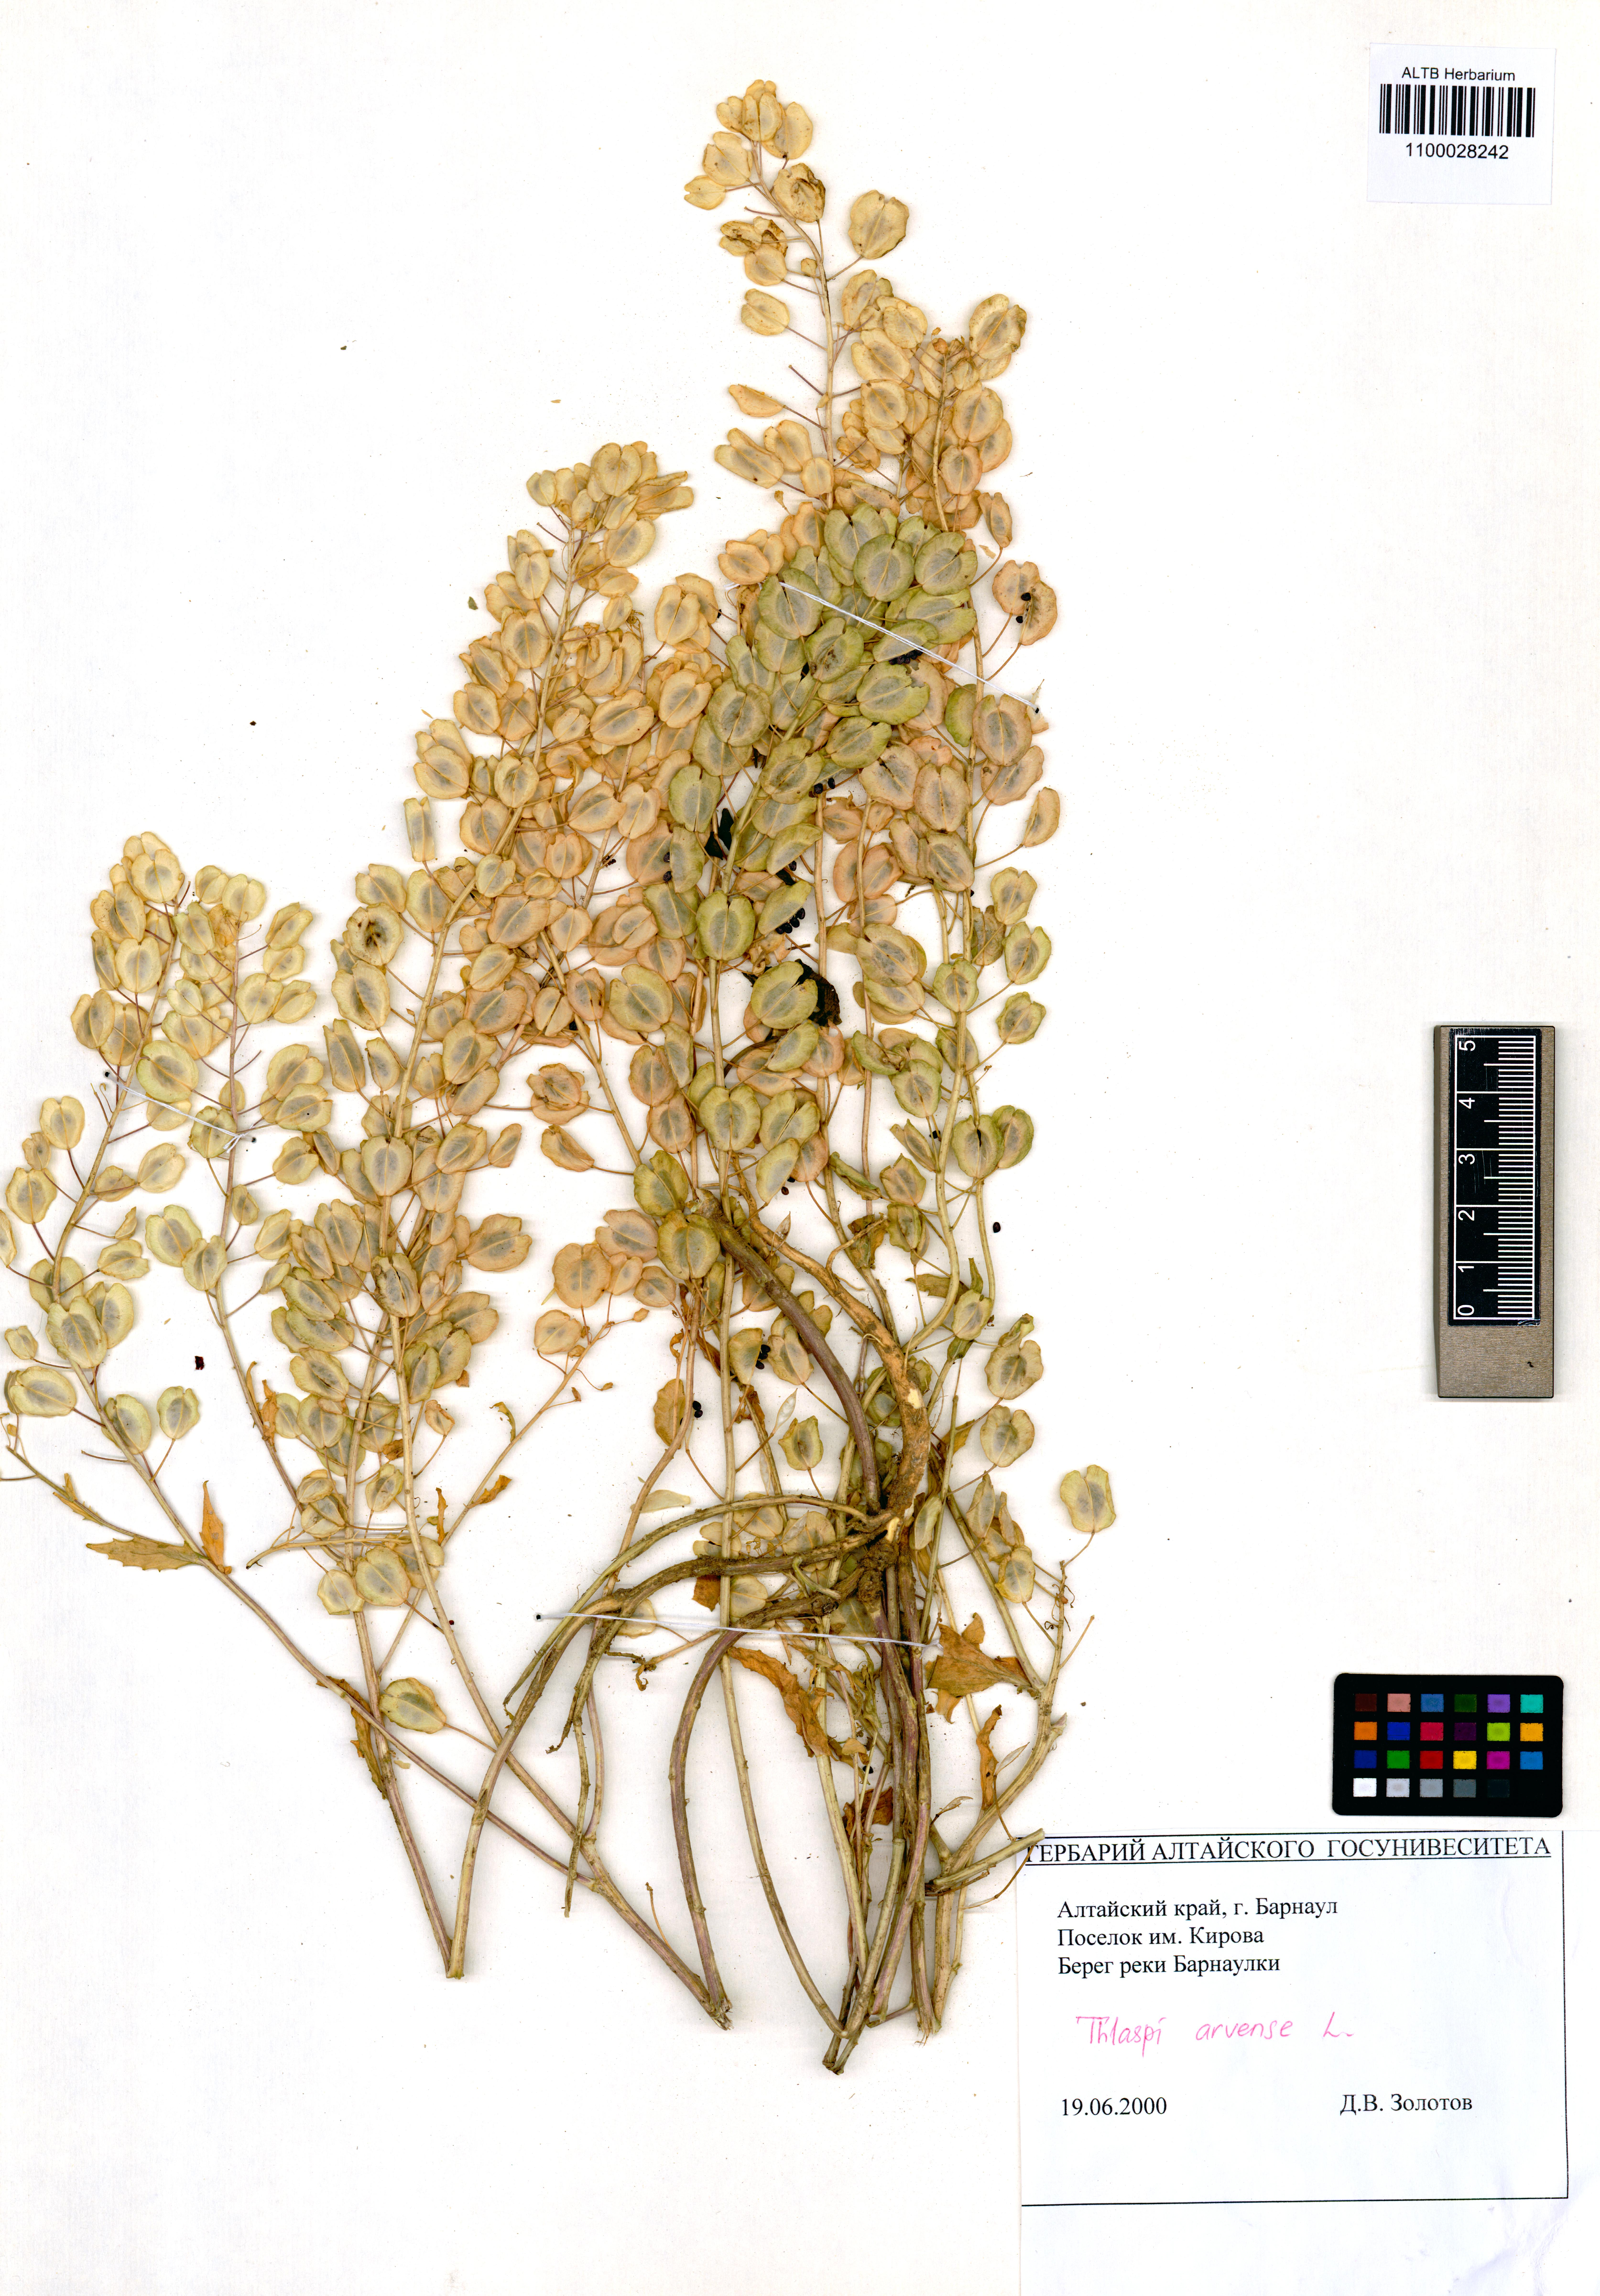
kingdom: Plantae
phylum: Tracheophyta
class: Magnoliopsida
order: Brassicales
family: Brassicaceae
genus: Thlaspi
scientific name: Thlaspi arvense
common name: Field pennycress
